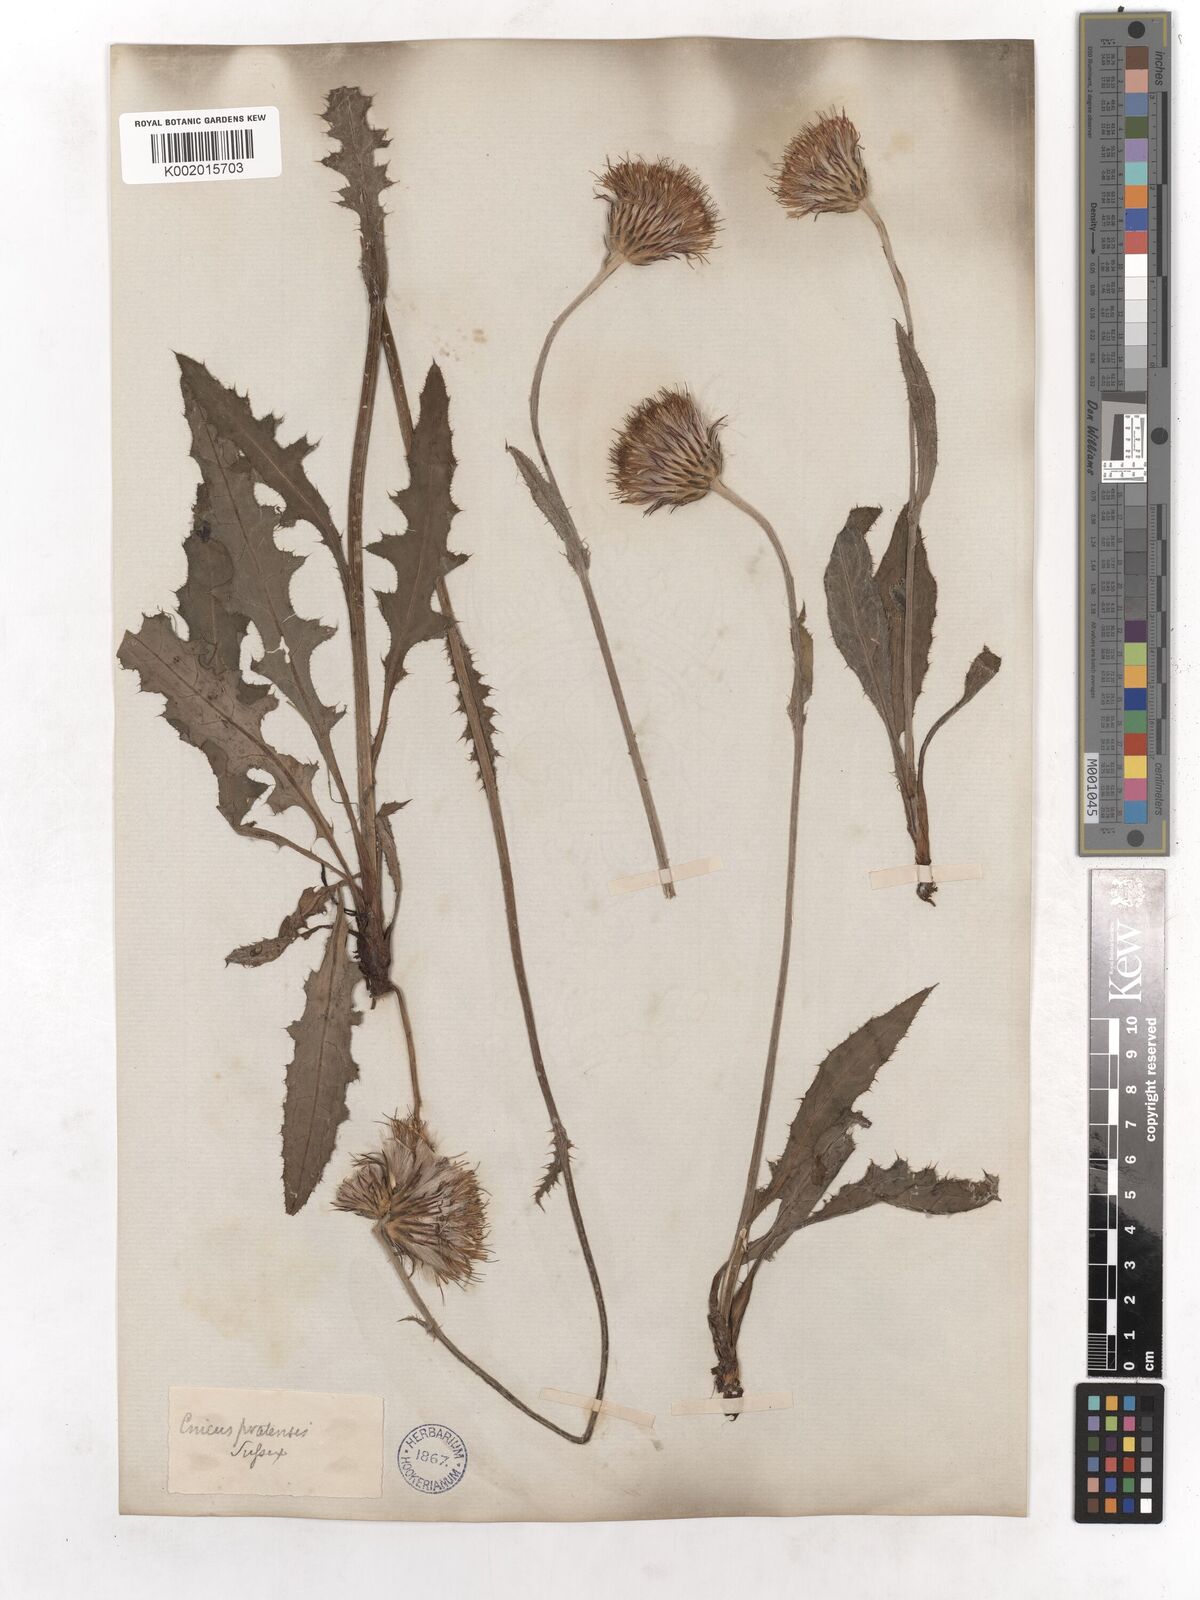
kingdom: Plantae
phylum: Tracheophyta
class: Magnoliopsida
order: Asterales
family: Asteraceae
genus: Cirsium
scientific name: Cirsium dissectum
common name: Meadow thistle
